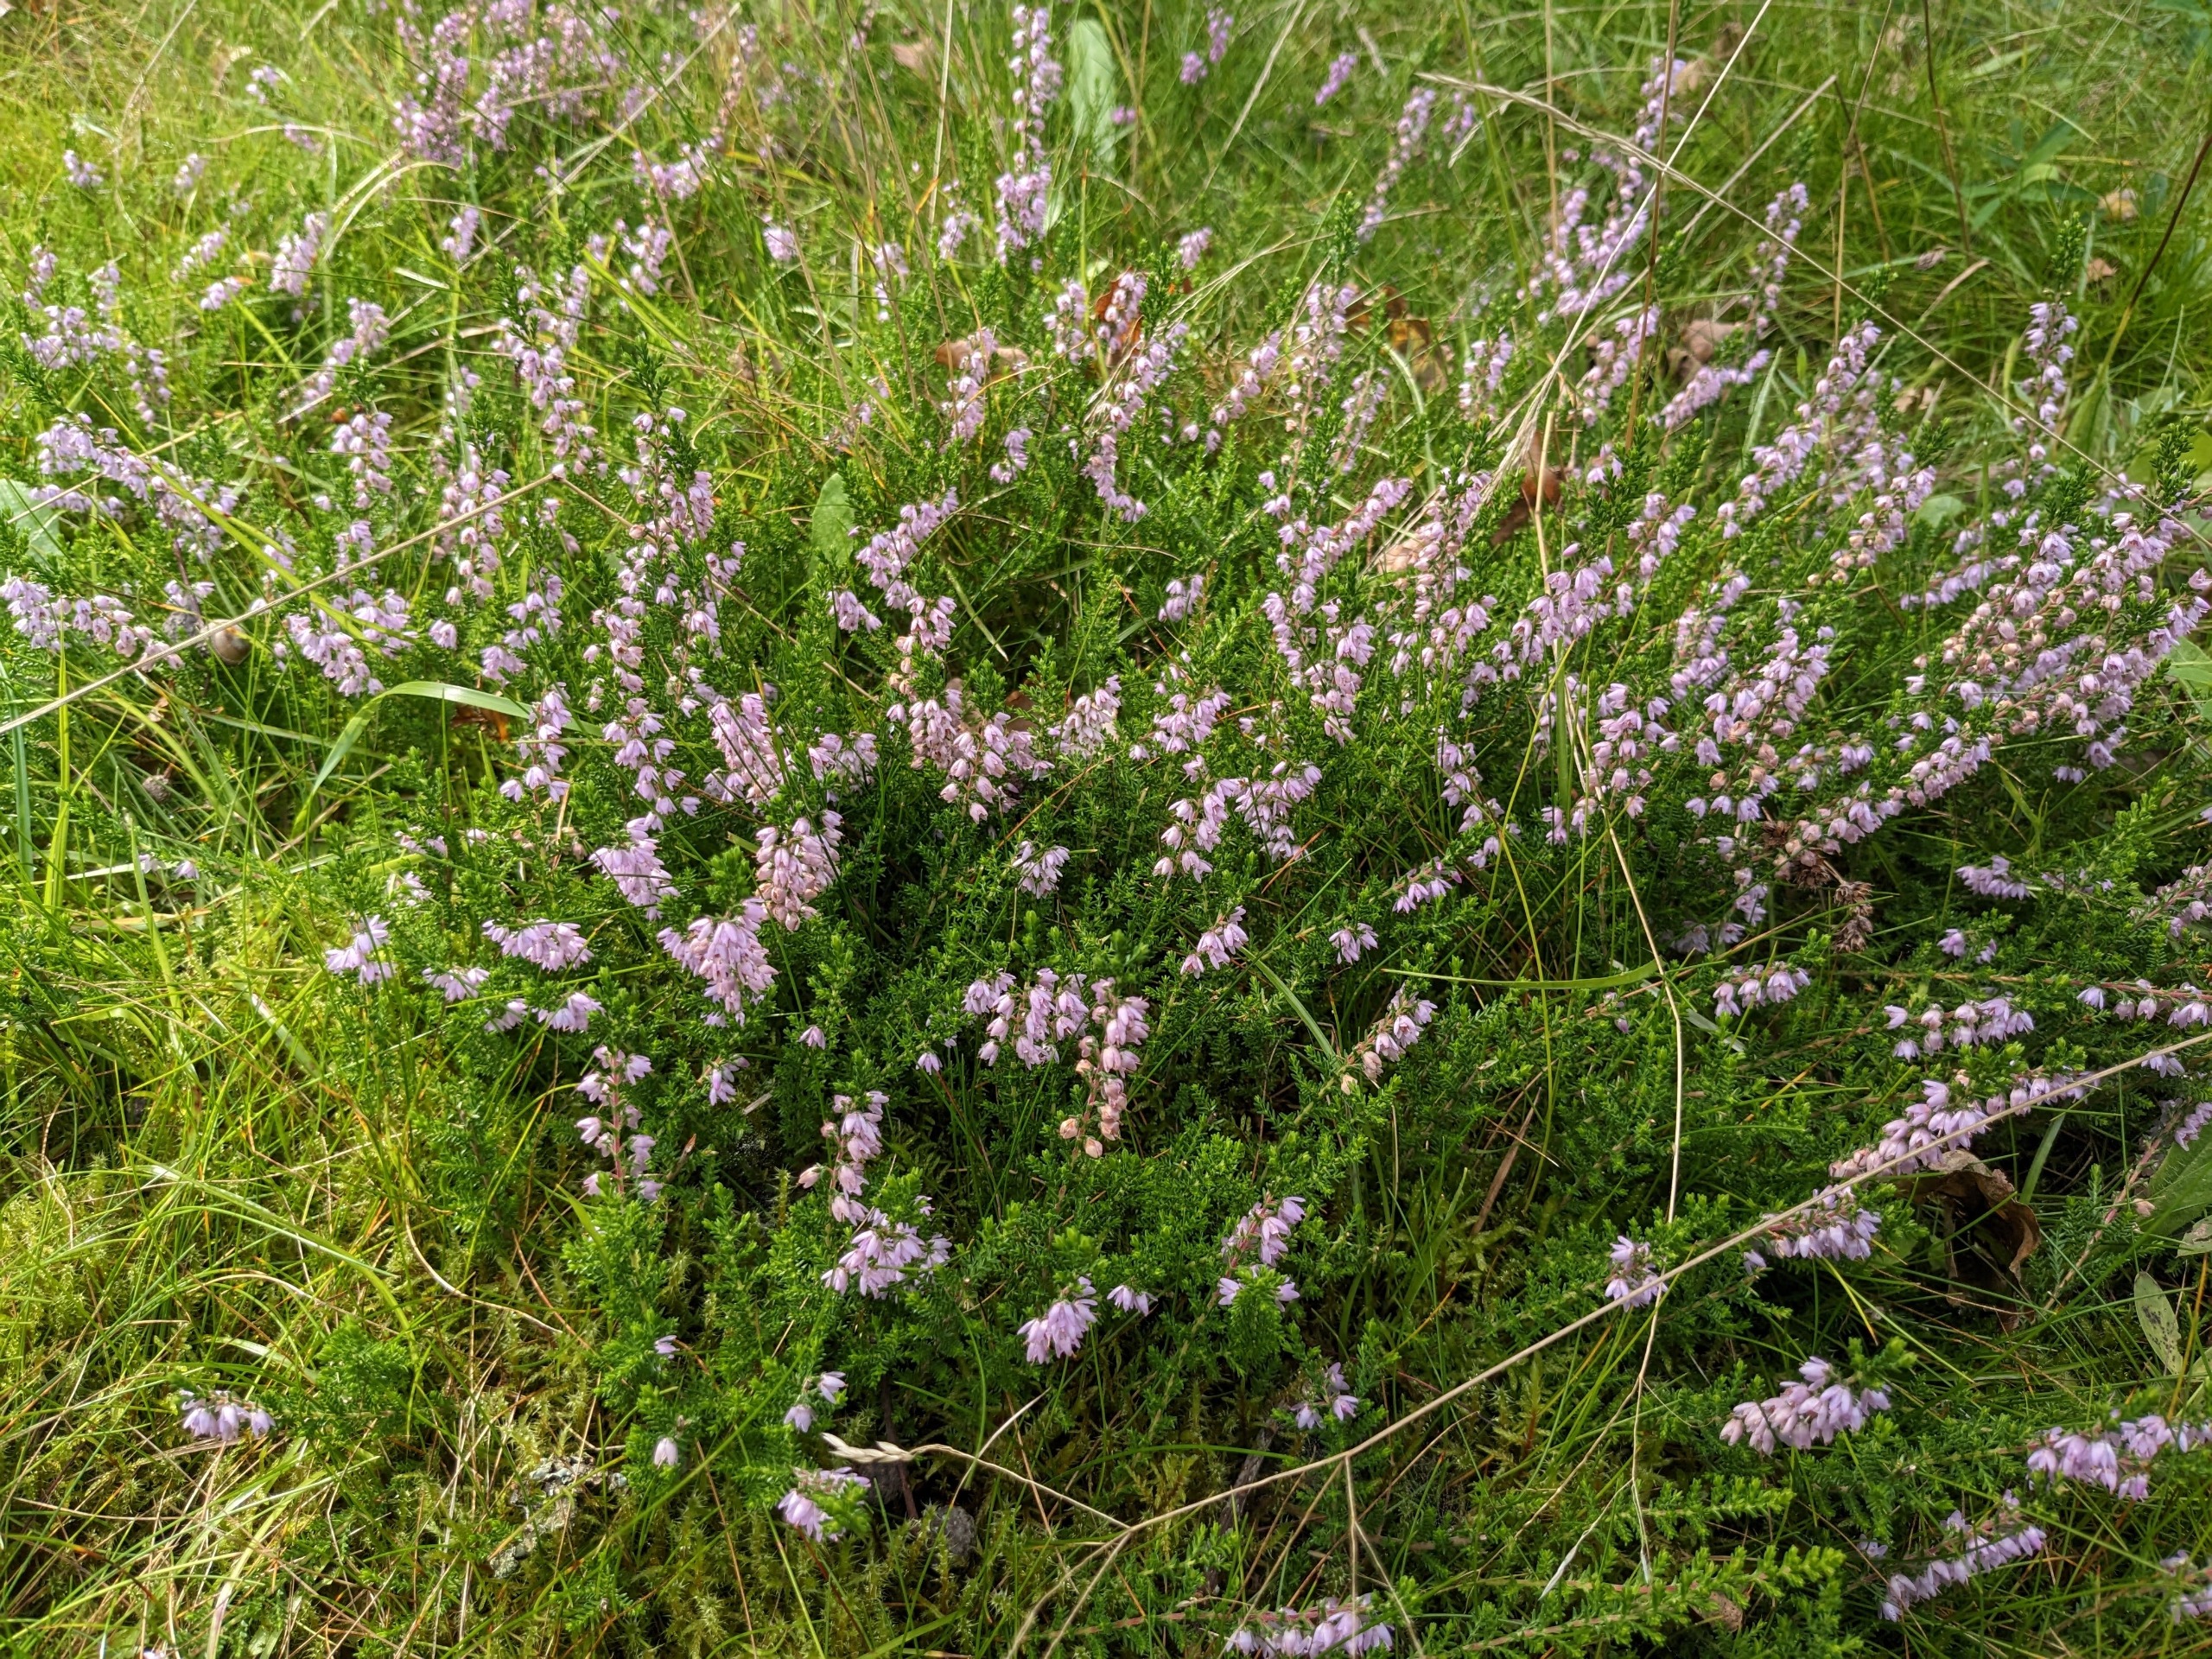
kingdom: Plantae
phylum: Tracheophyta
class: Magnoliopsida
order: Ericales
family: Ericaceae
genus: Calluna
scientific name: Calluna vulgaris
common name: Hedelyng
